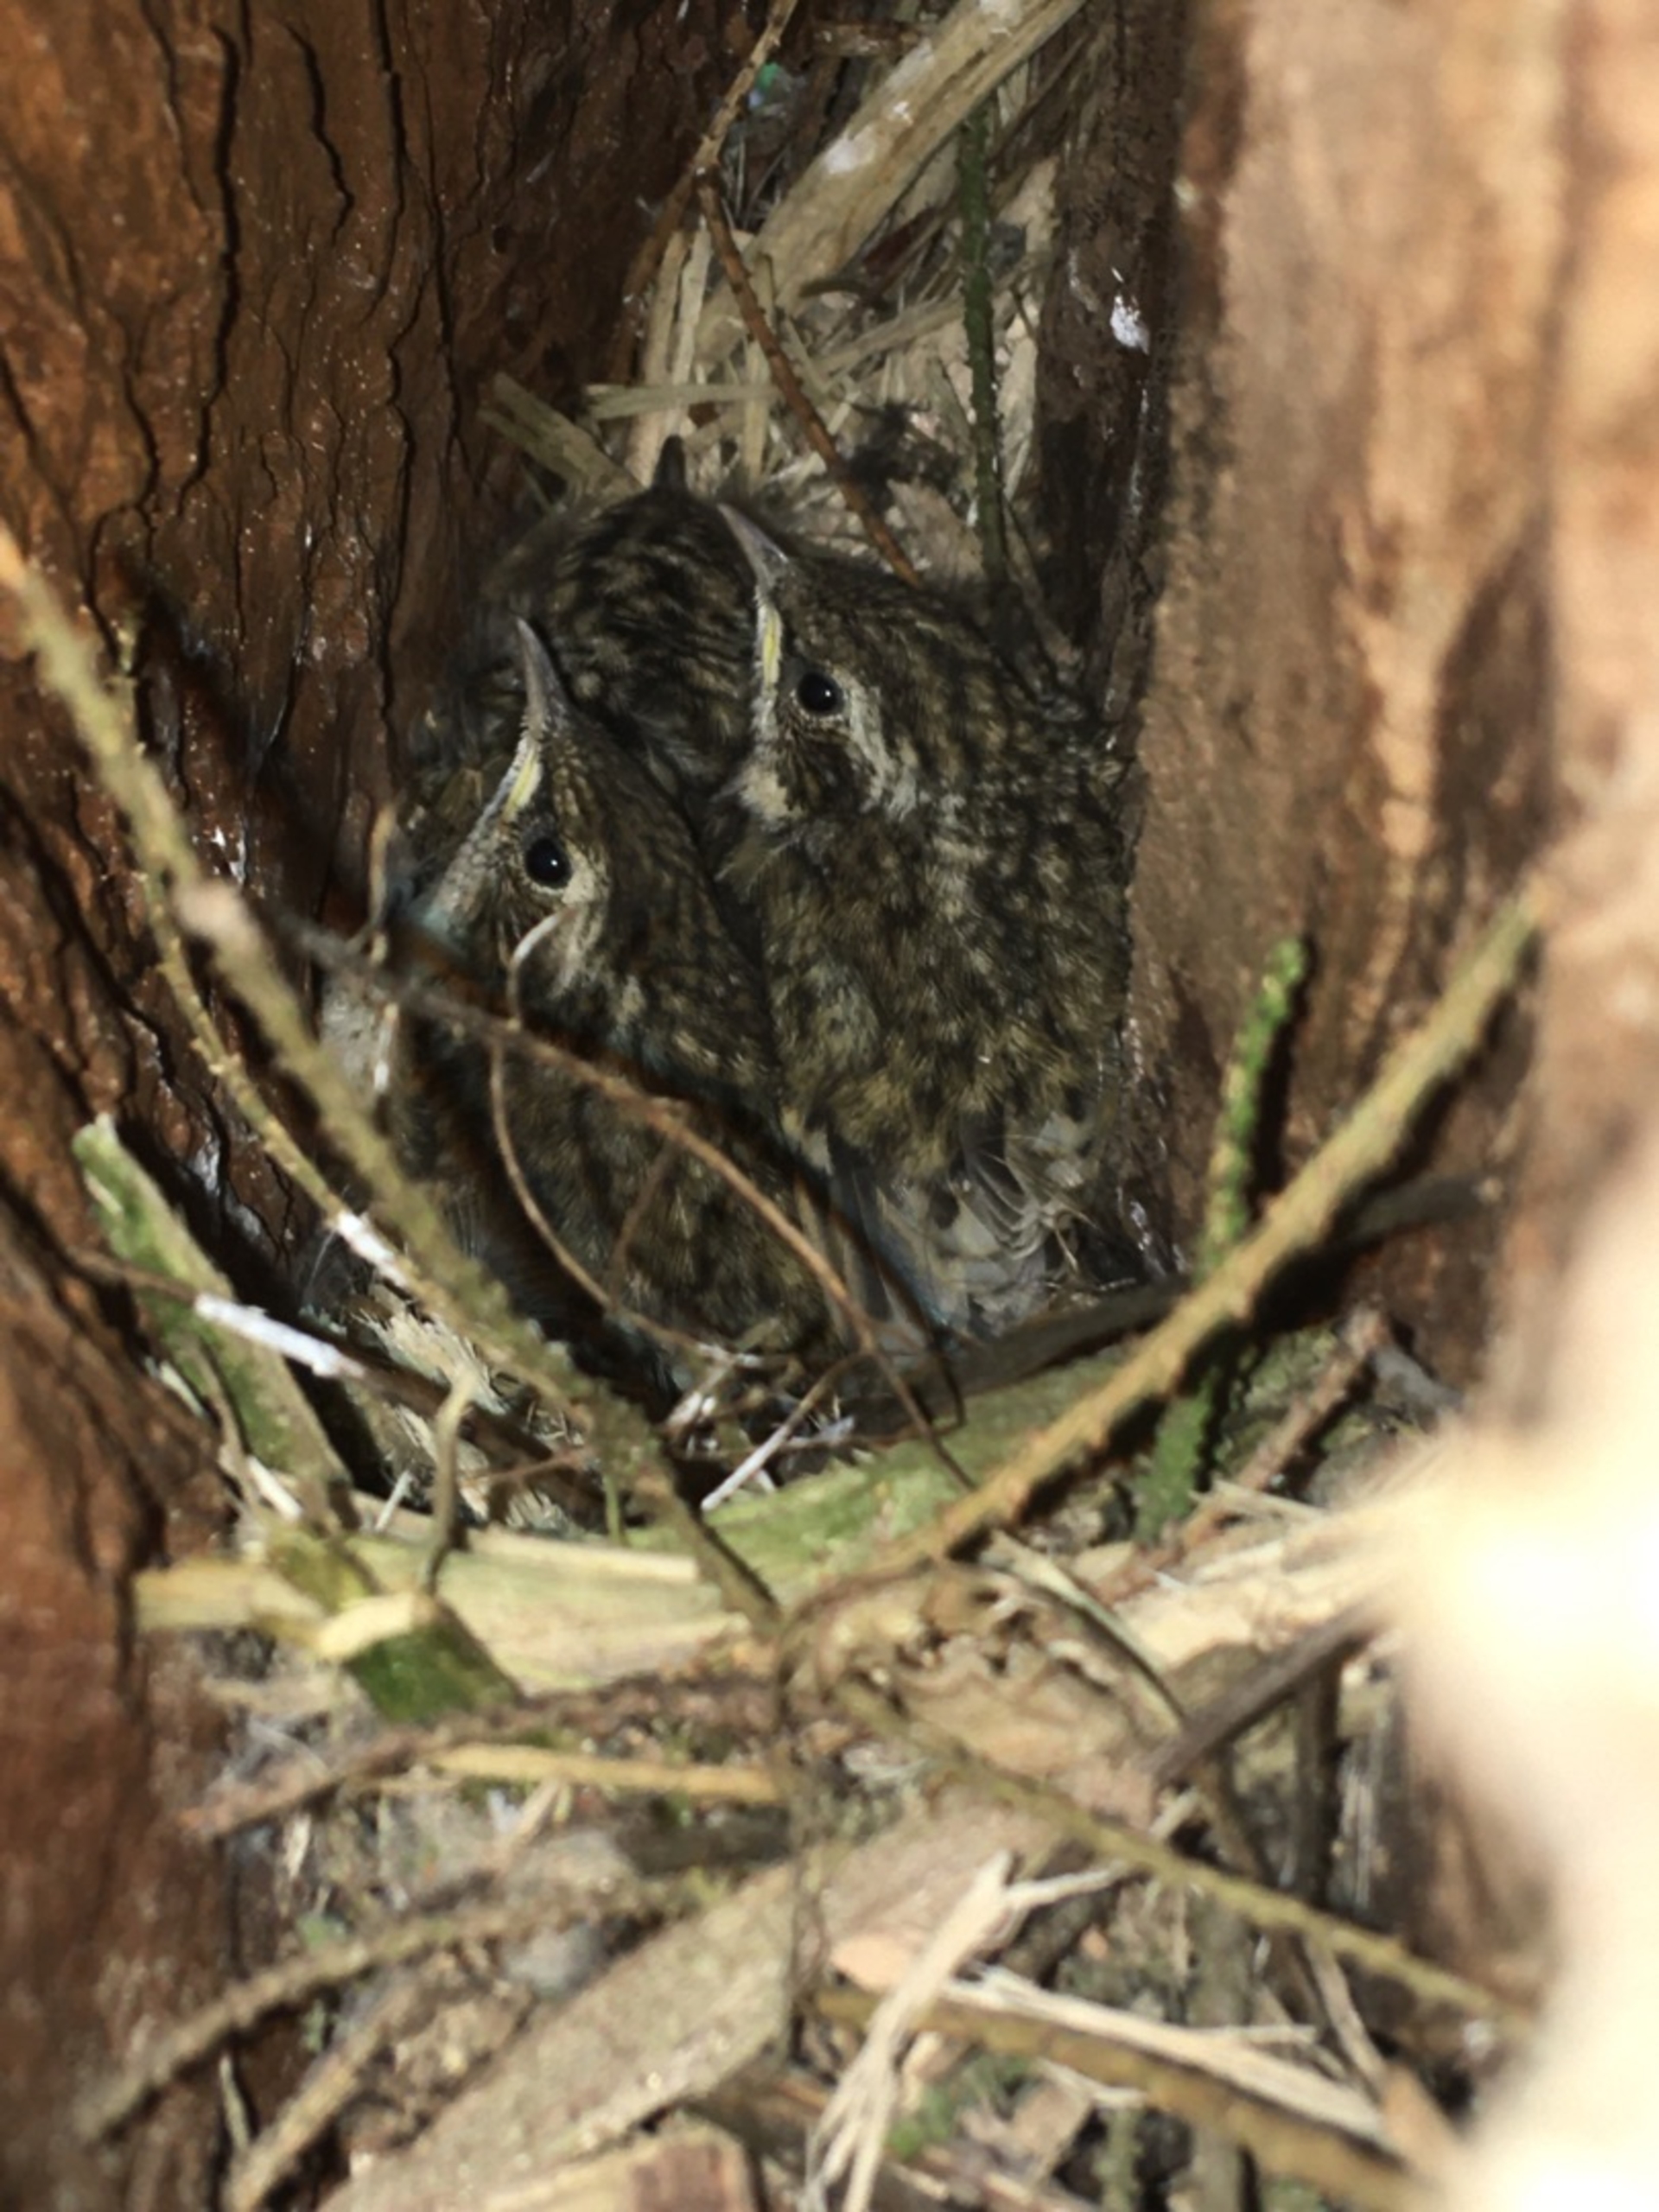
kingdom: Animalia
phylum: Chordata
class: Aves
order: Passeriformes
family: Certhiidae
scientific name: Certhiidae
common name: Træløbere
